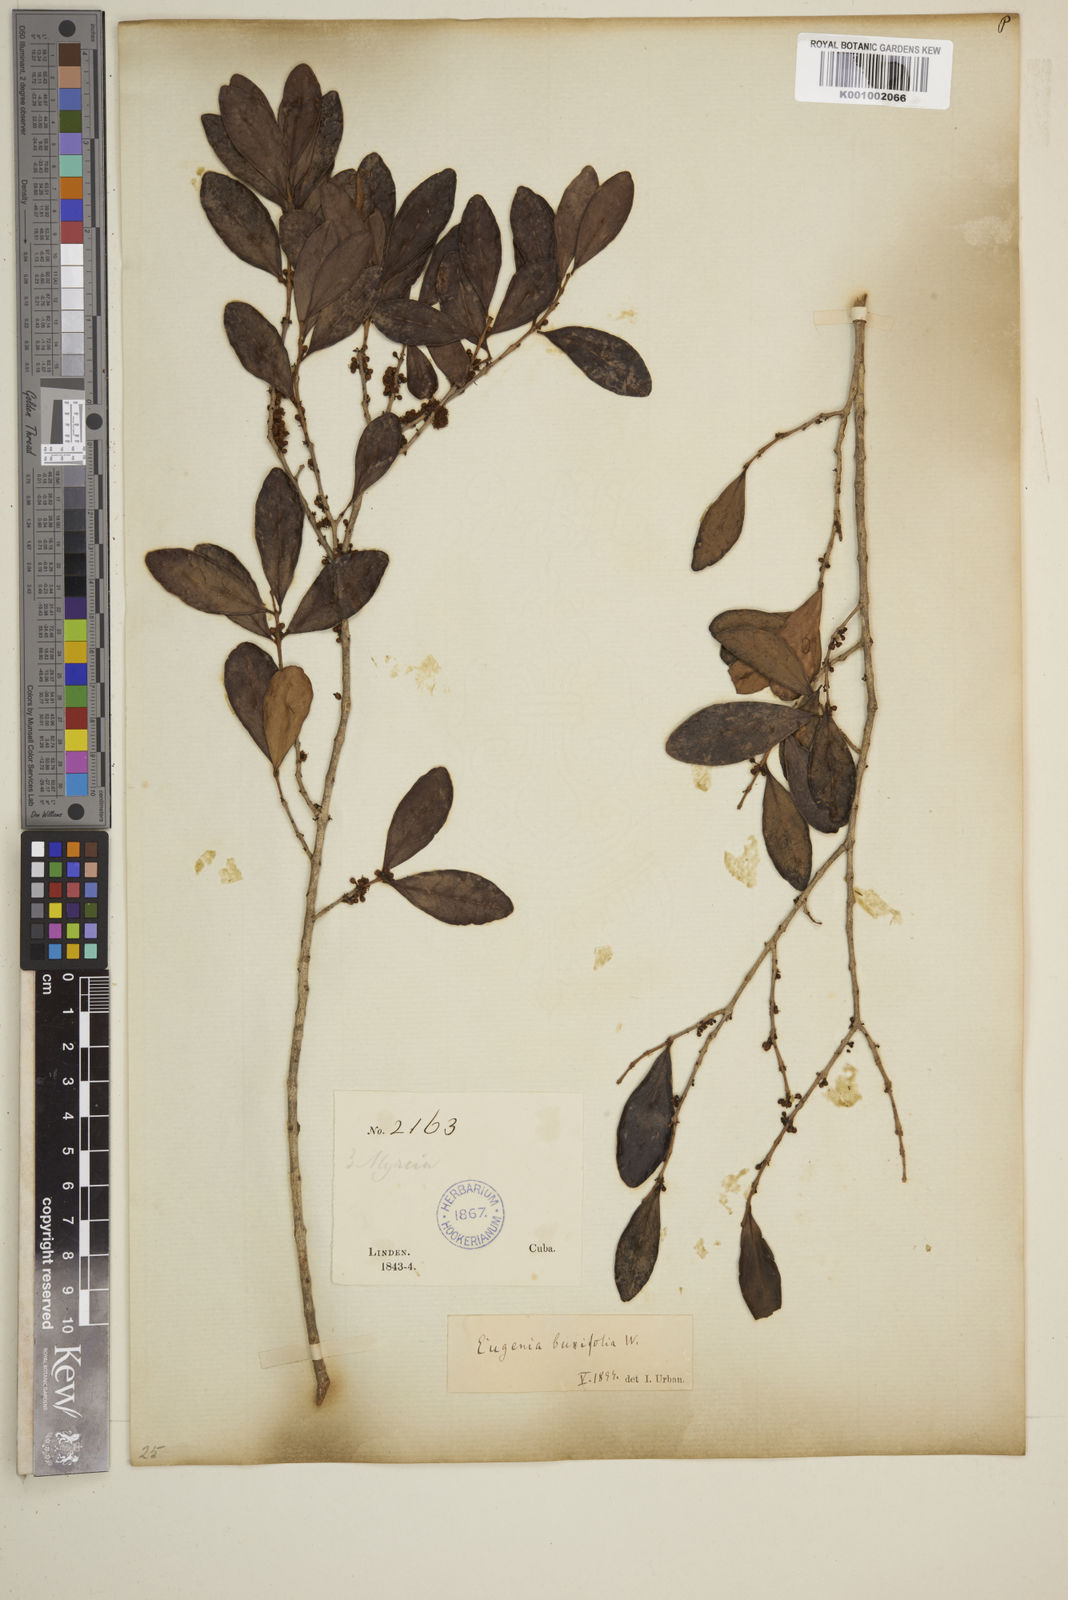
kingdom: Plantae
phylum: Tracheophyta
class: Magnoliopsida
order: Myrtales
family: Myrtaceae
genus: Eugenia
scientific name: Eugenia buxifolia
